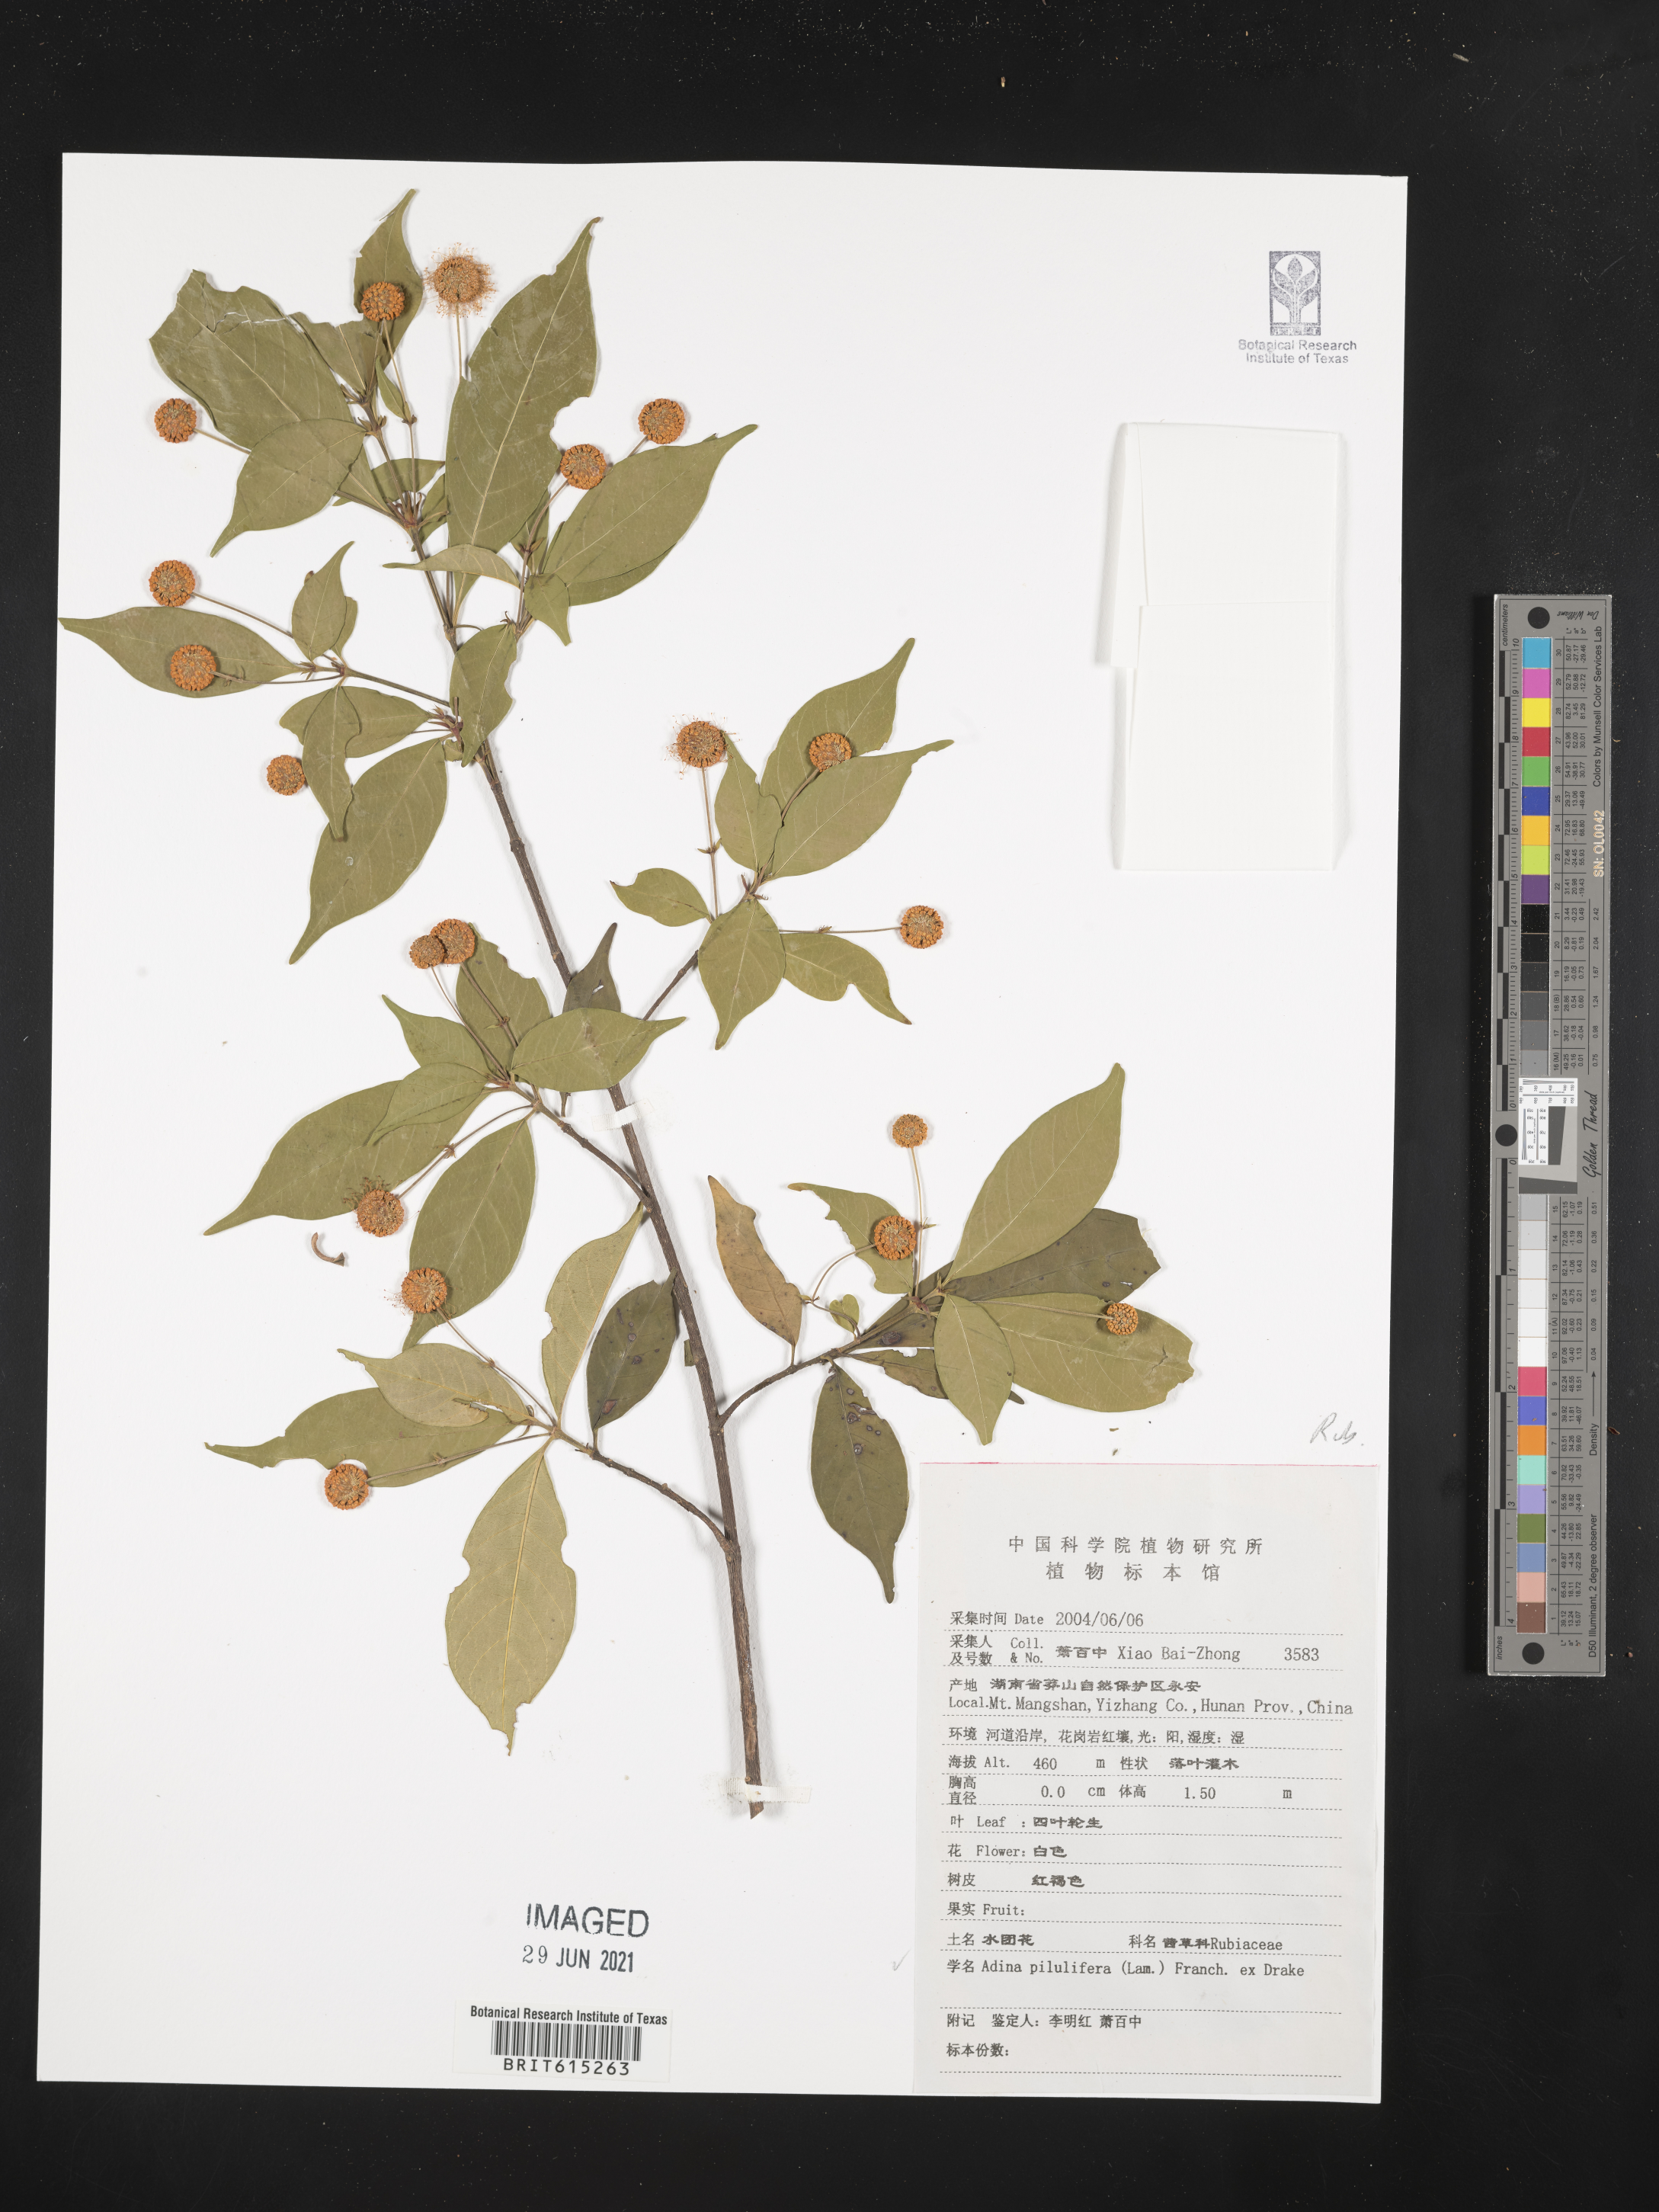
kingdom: Plantae
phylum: Tracheophyta
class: Magnoliopsida
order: Gentianales
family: Rubiaceae
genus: Adina
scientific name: Adina pilulifera
